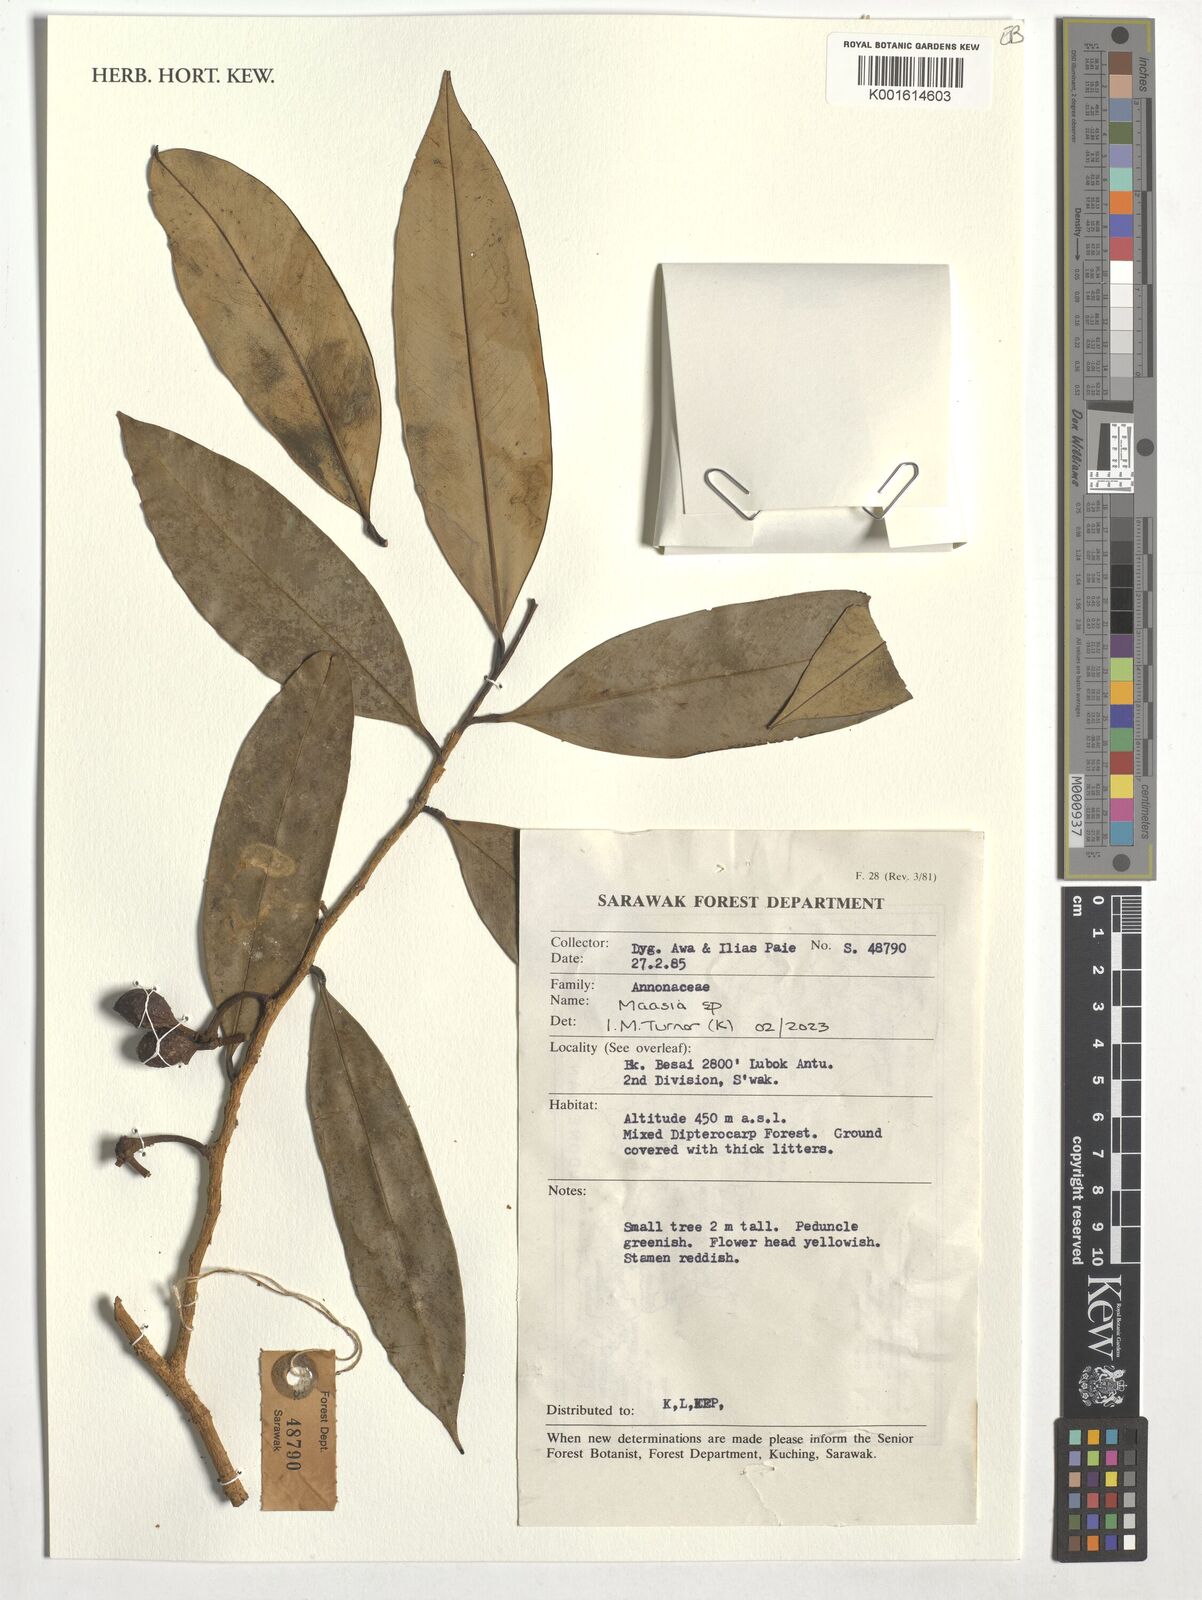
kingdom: Plantae
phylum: Tracheophyta
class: Magnoliopsida
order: Magnoliales
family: Annonaceae
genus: Maasia
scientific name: Maasia
